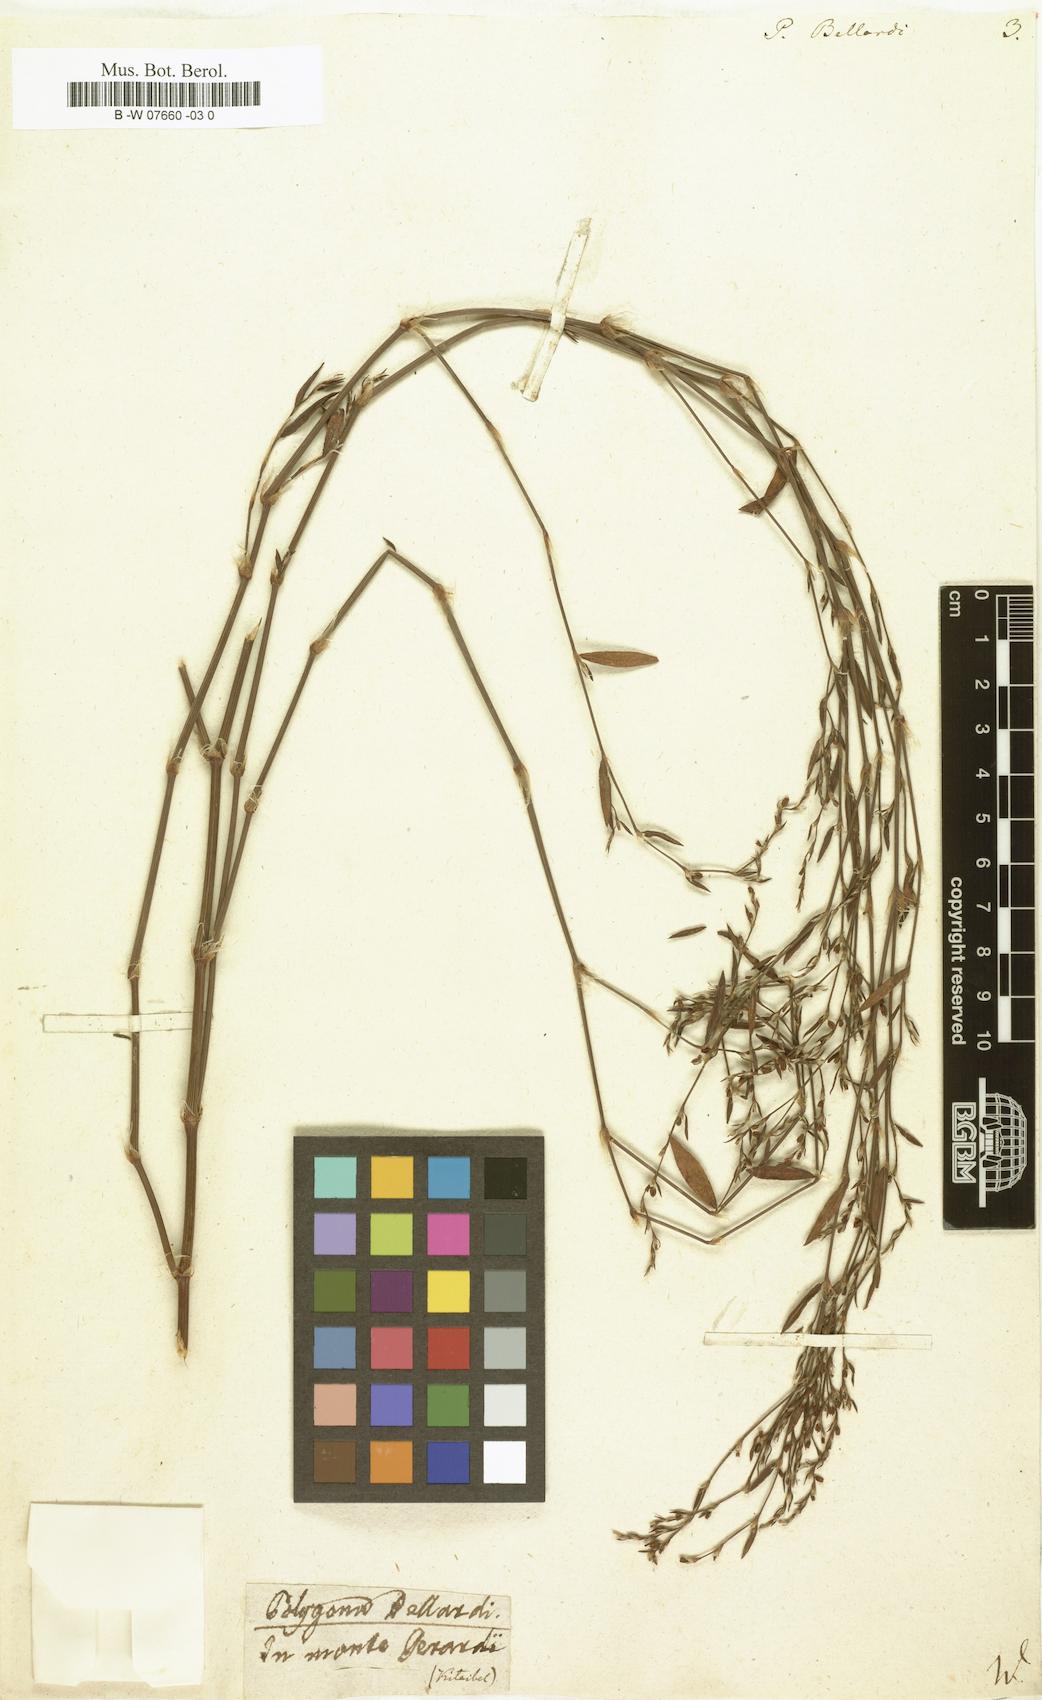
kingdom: Plantae
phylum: Tracheophyta
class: Magnoliopsida
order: Caryophyllales
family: Polygonaceae
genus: Polygonum
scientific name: Polygonum bellardii
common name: Narrowleaf knotweed
